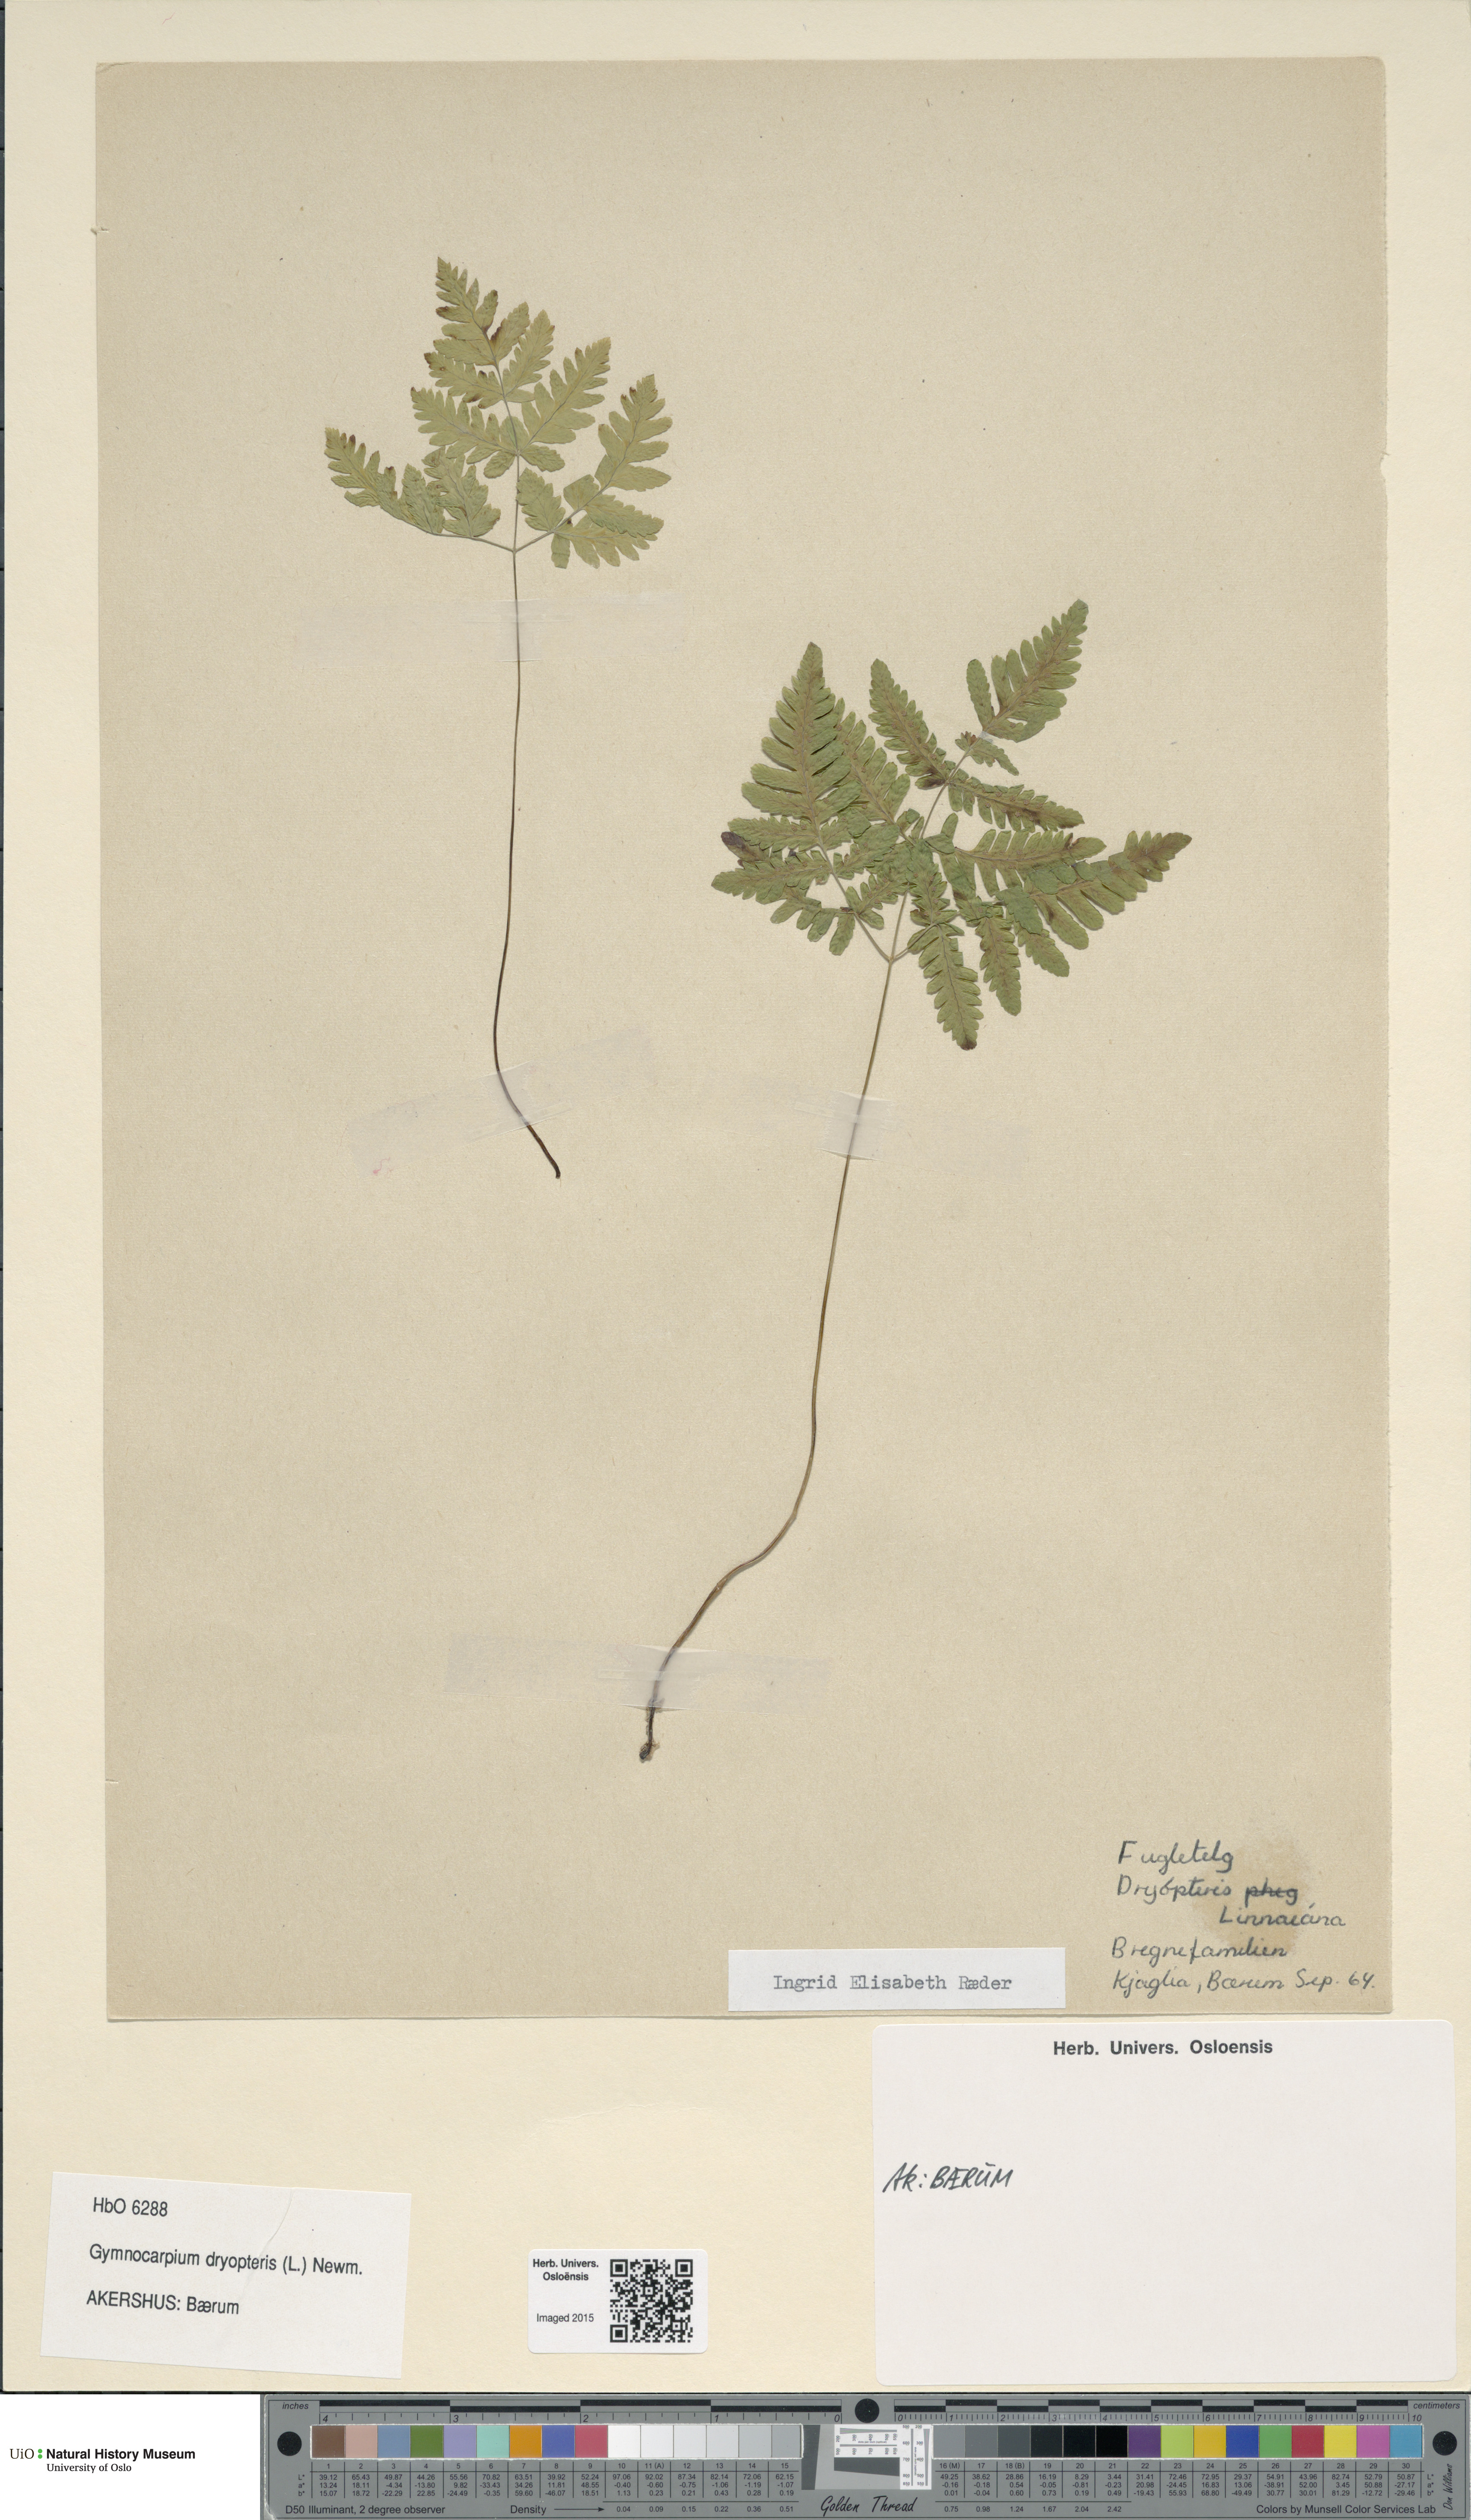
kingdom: Plantae
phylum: Tracheophyta
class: Polypodiopsida
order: Polypodiales
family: Cystopteridaceae
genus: Gymnocarpium
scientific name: Gymnocarpium dryopteris
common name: Oak fern
